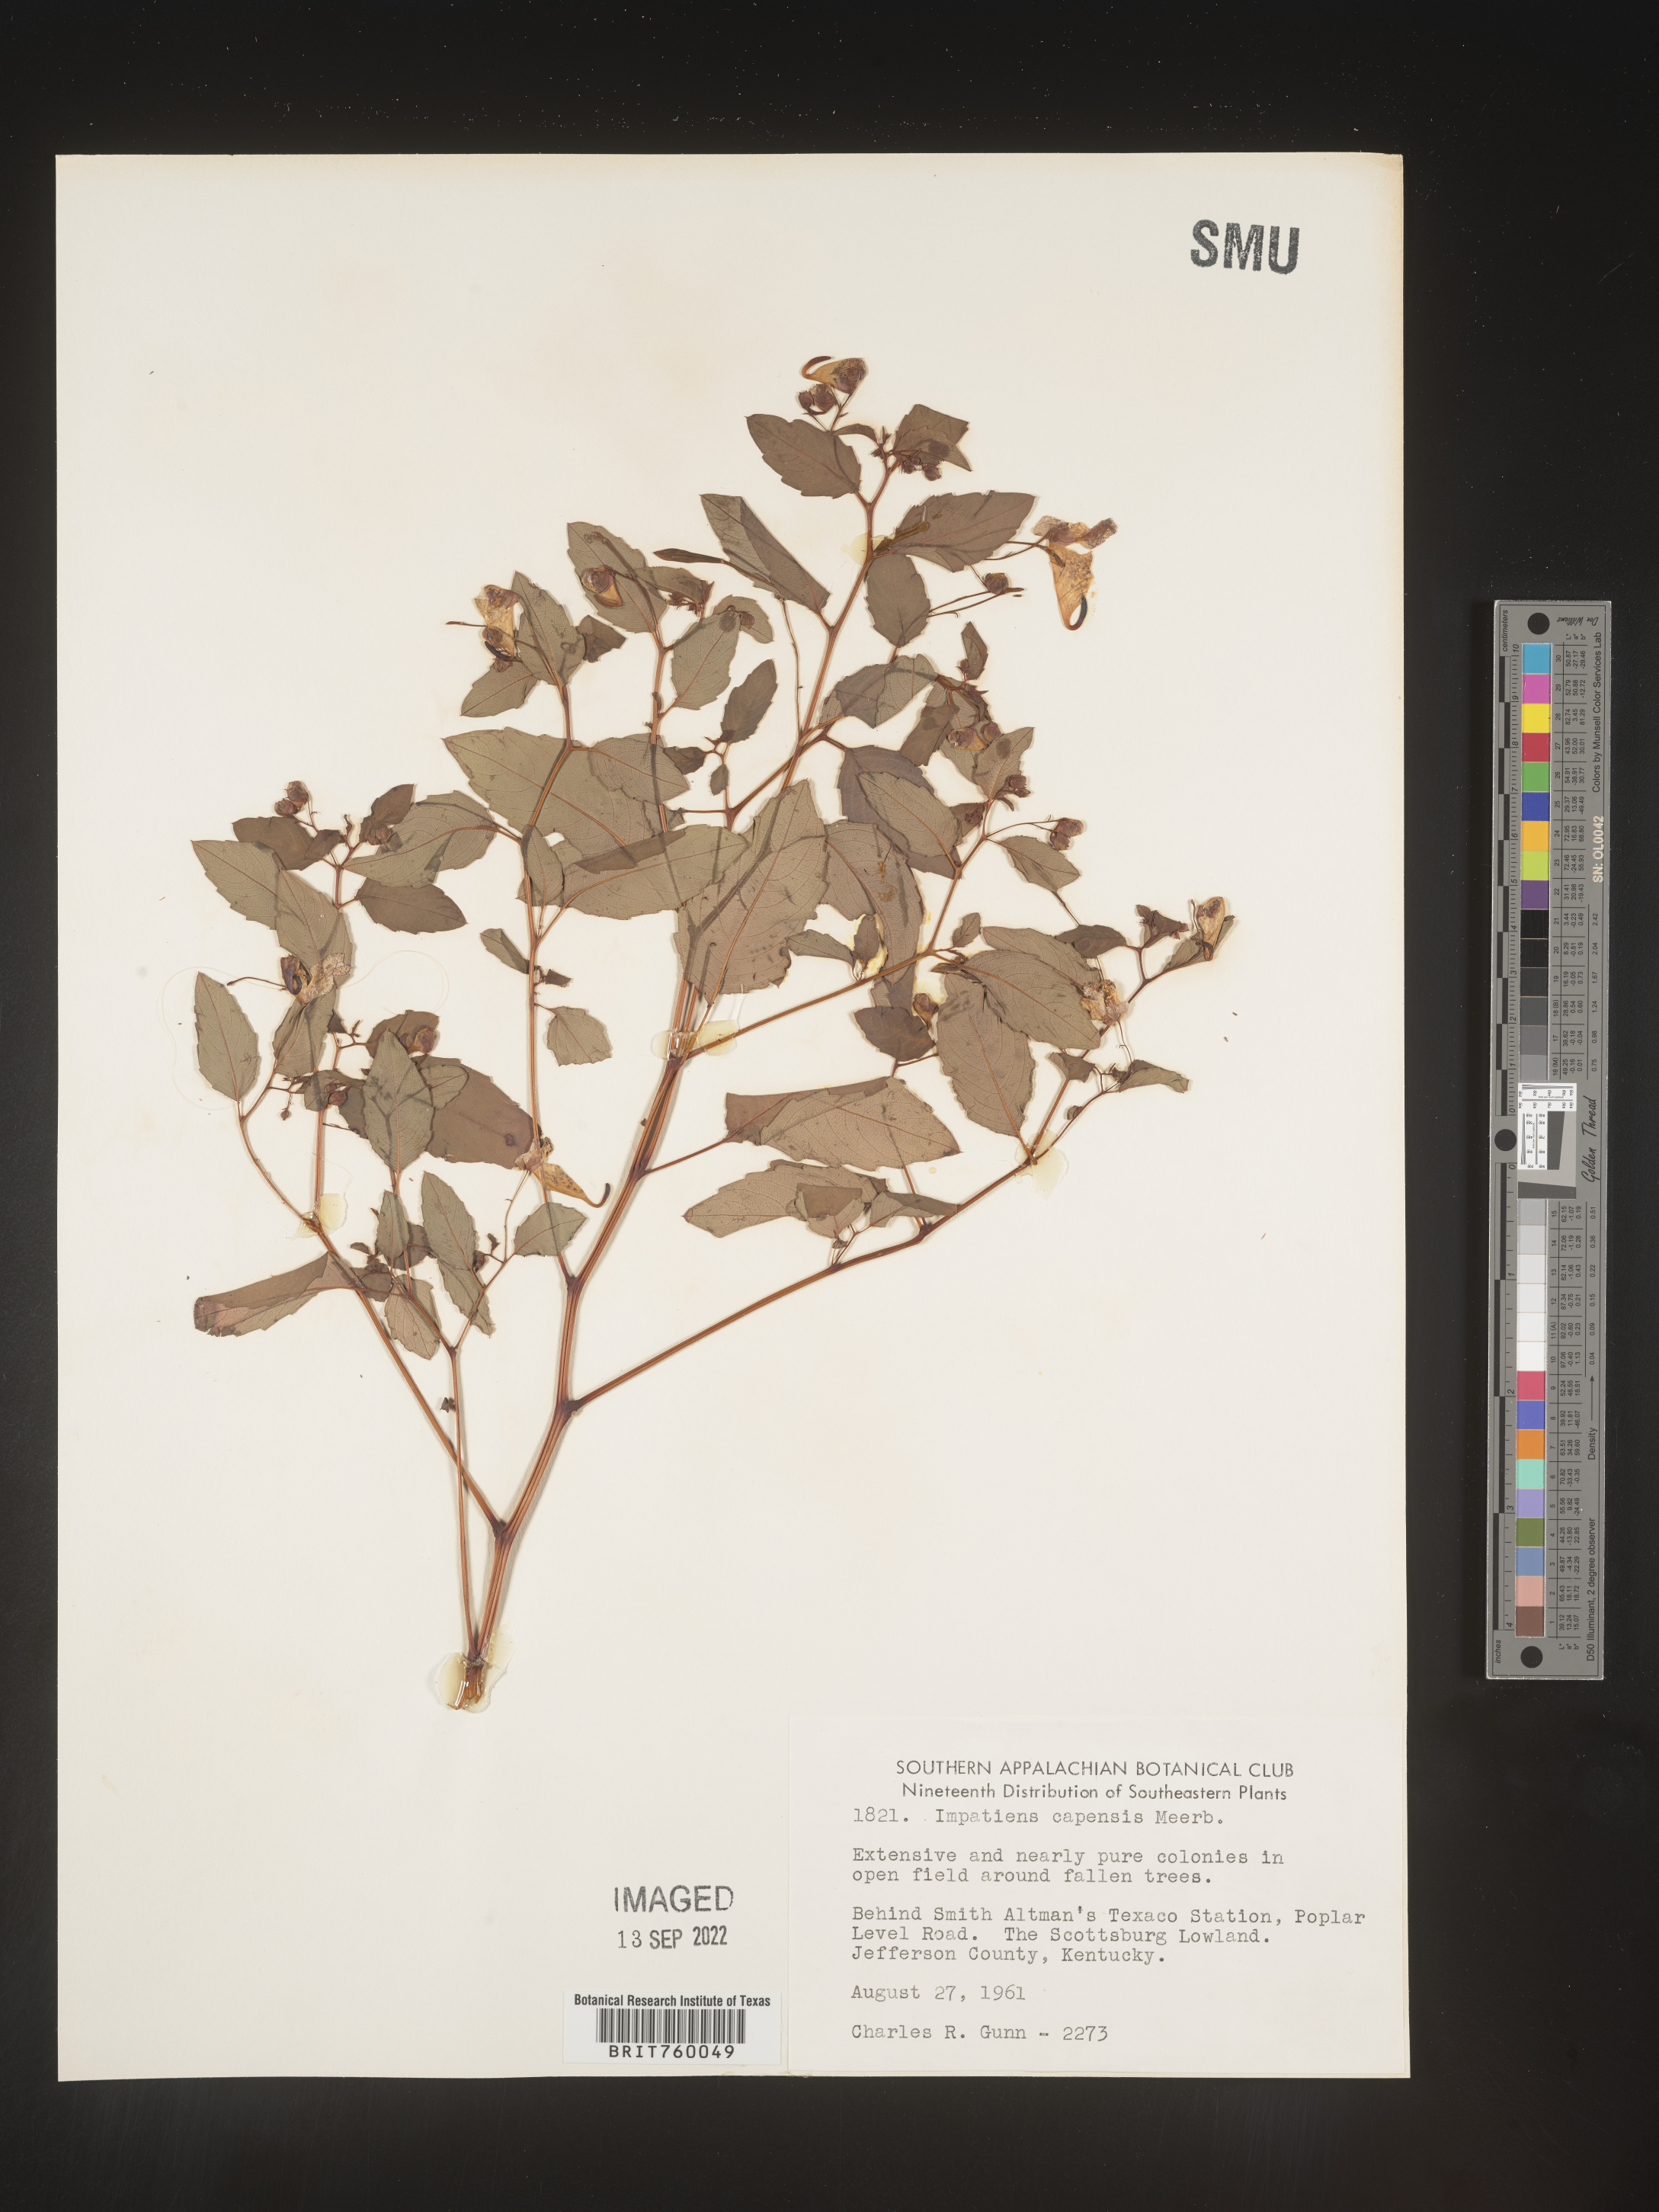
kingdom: Plantae
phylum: Tracheophyta
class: Magnoliopsida
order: Ericales
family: Balsaminaceae
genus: Impatiens
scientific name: Impatiens capensis
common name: Orange balsam
